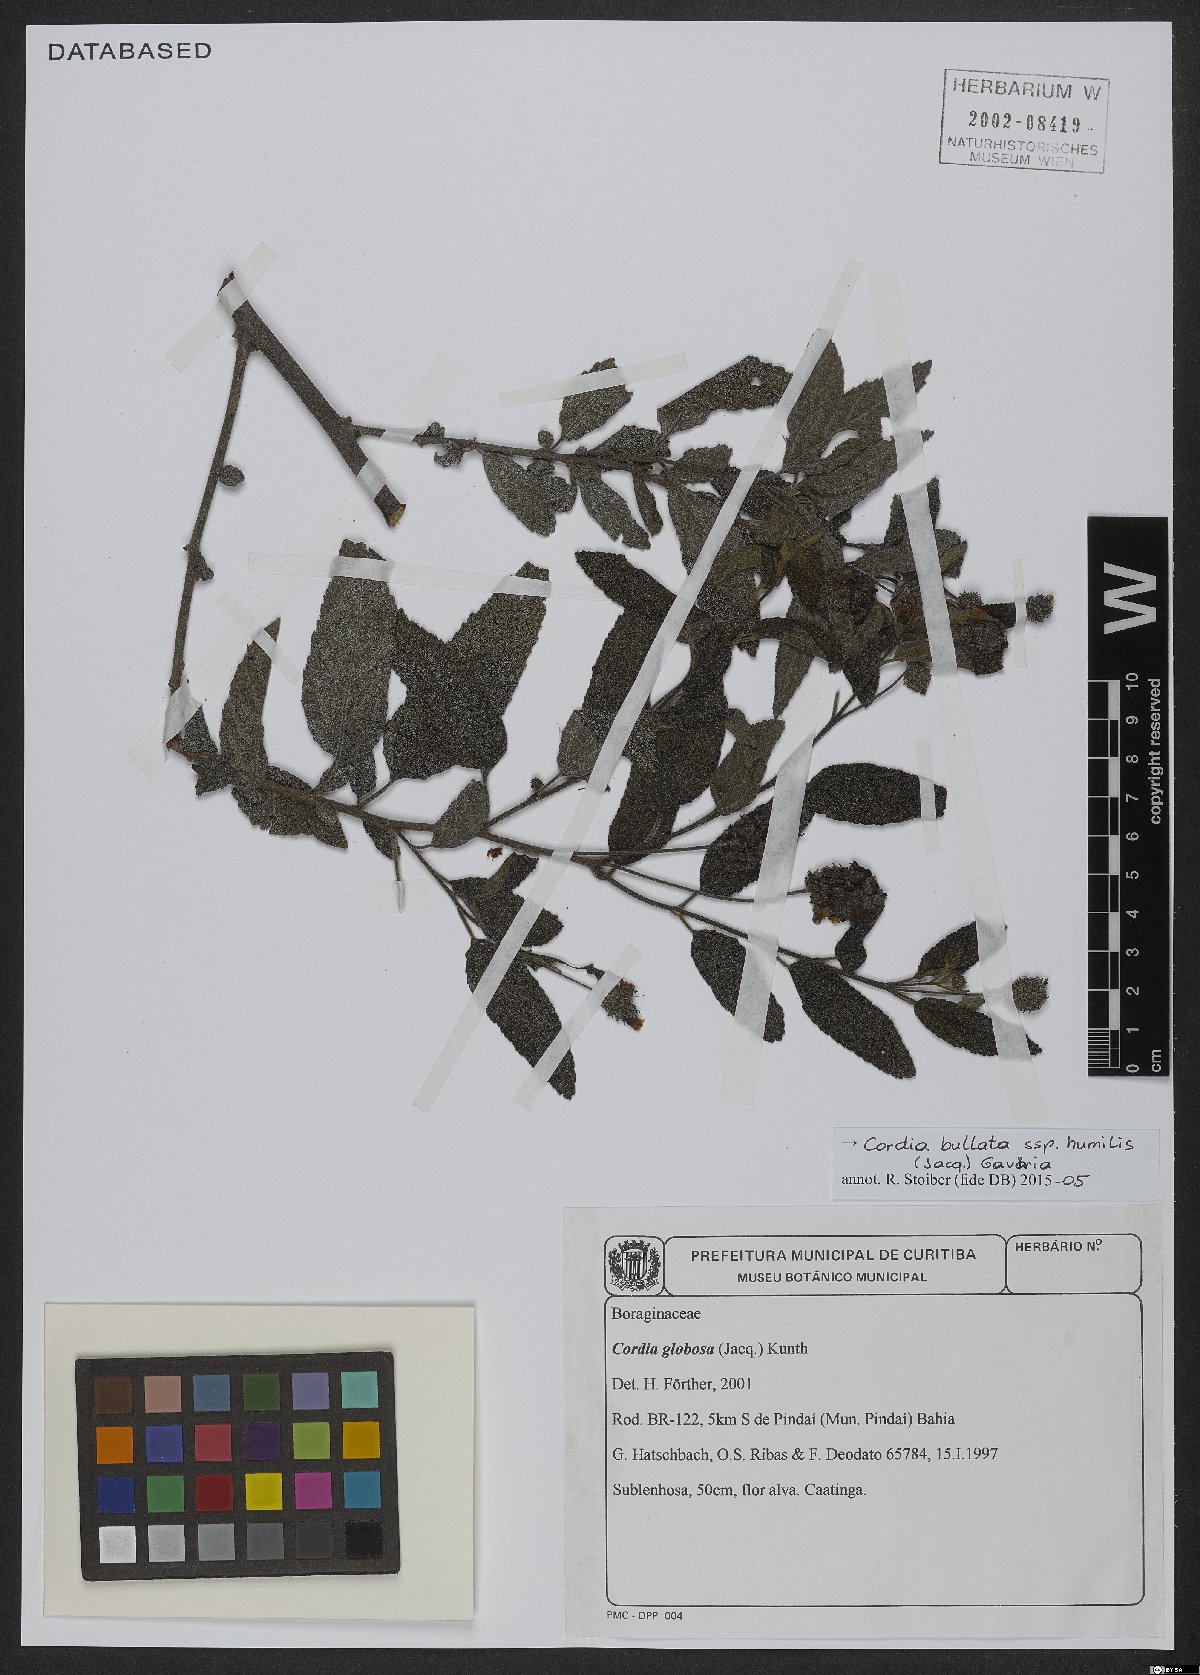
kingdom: Plantae
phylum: Tracheophyta
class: Magnoliopsida
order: Boraginales
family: Cordiaceae
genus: Varronia
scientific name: Varronia bullata
